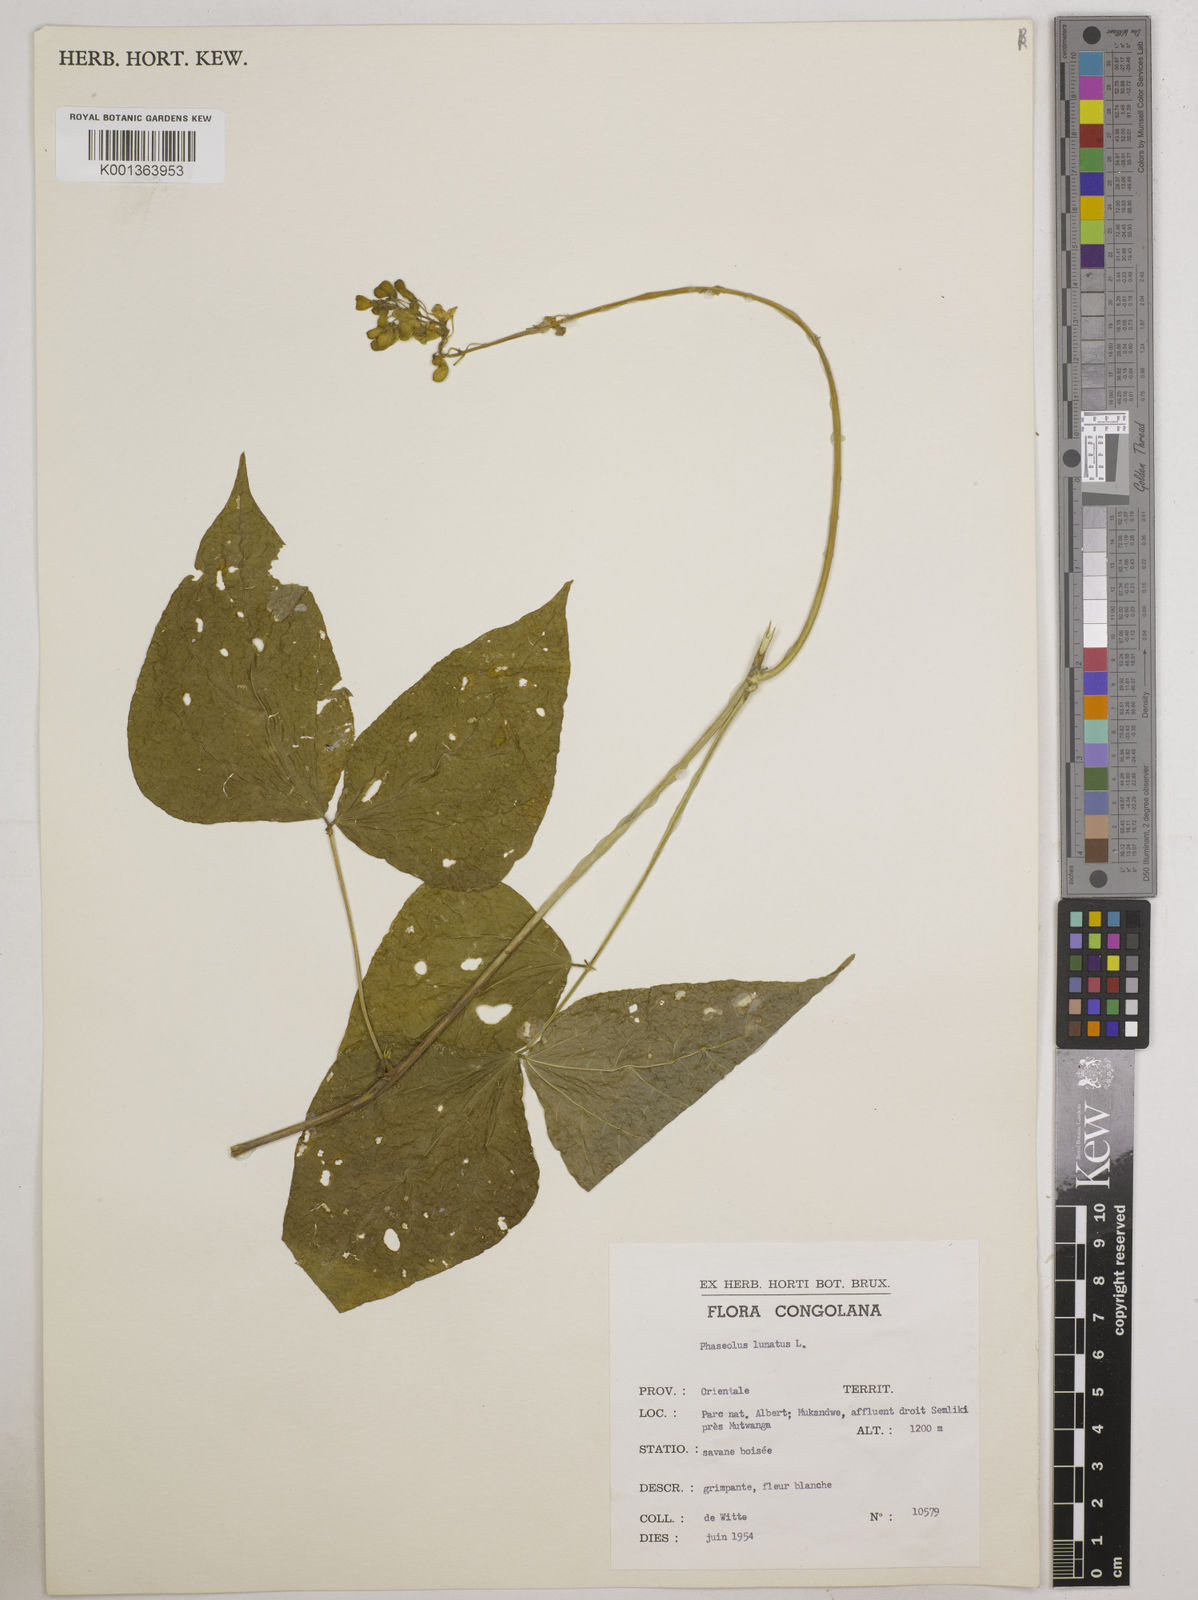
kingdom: Plantae
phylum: Tracheophyta
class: Magnoliopsida
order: Fabales
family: Fabaceae
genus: Phaseolus
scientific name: Phaseolus lunatus
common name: Sieva bean
